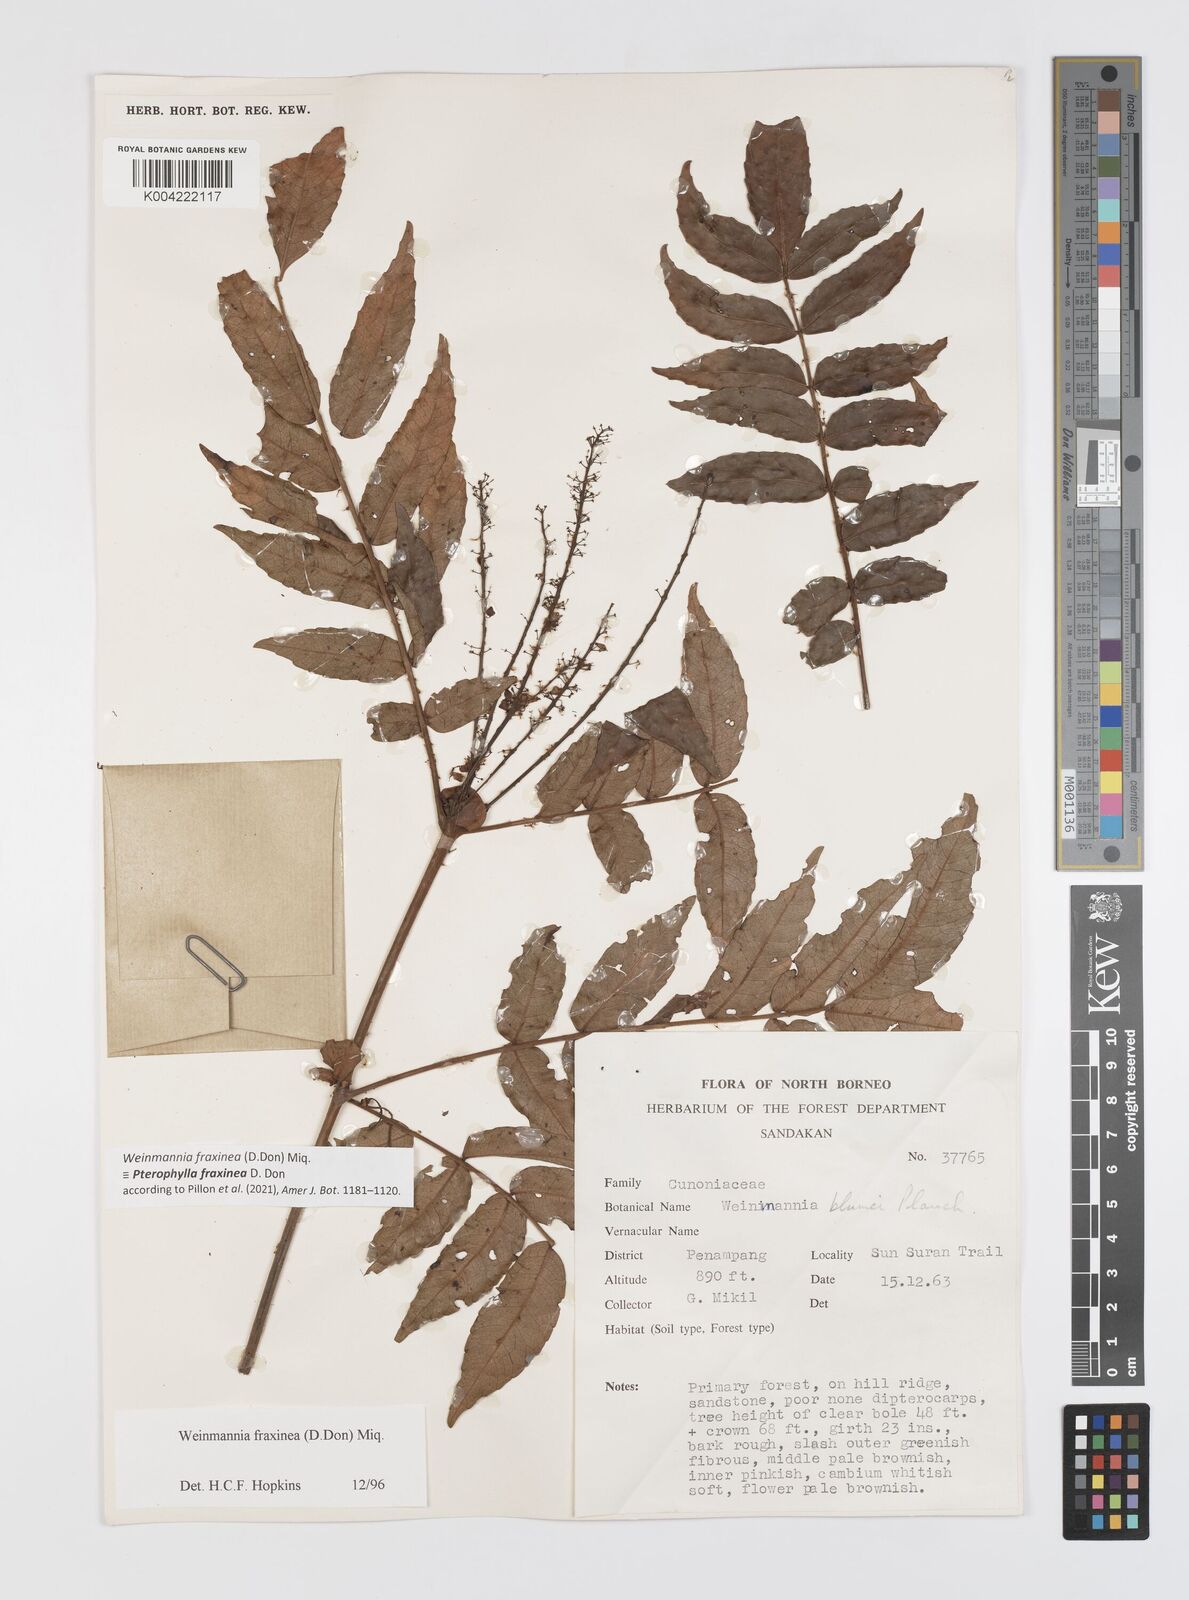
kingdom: Plantae
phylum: Tracheophyta
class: Magnoliopsida
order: Oxalidales
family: Cunoniaceae
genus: Pterophylla
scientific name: Pterophylla fraxinea
